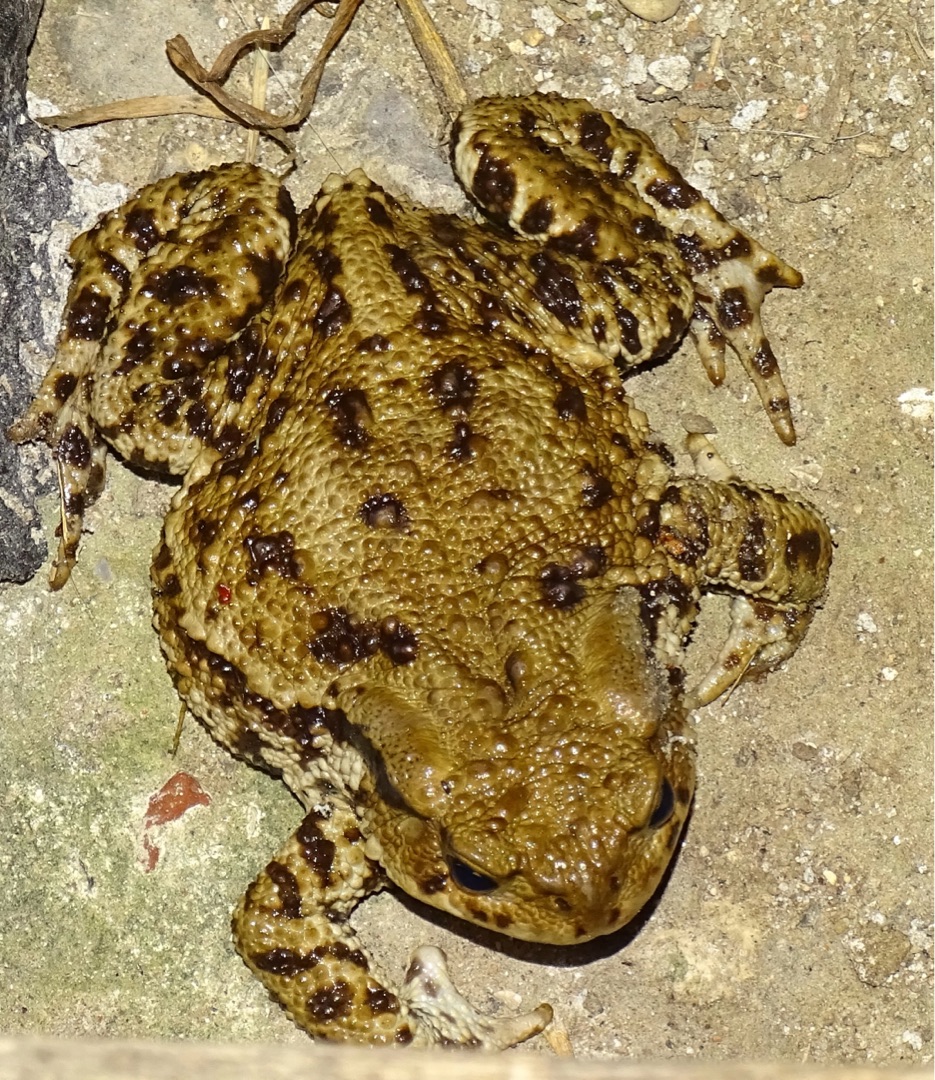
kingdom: Animalia
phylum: Chordata
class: Amphibia
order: Anura
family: Bufonidae
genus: Bufo
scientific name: Bufo bufo
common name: Skrubtudse
